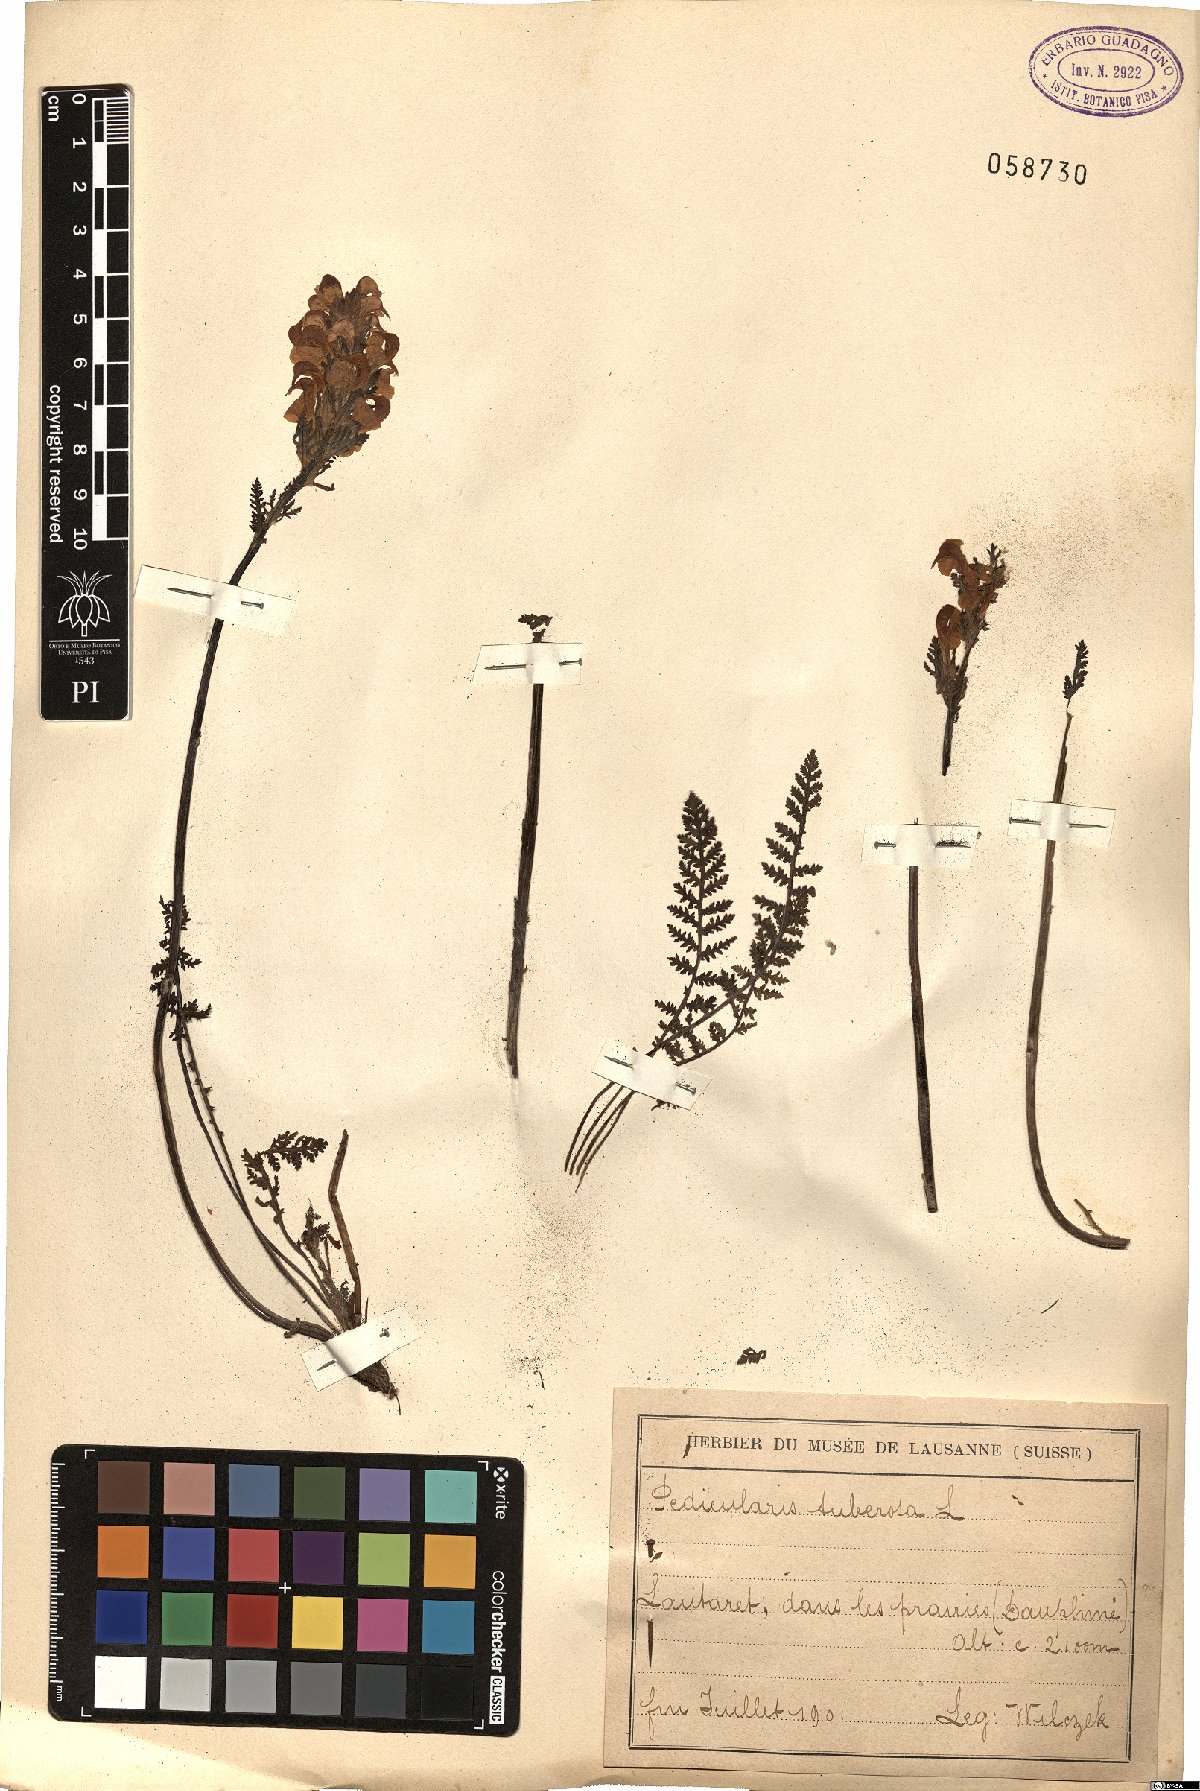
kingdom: Plantae
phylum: Tracheophyta
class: Magnoliopsida
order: Lamiales
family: Orobanchaceae
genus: Pedicularis
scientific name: Pedicularis tuberosa
